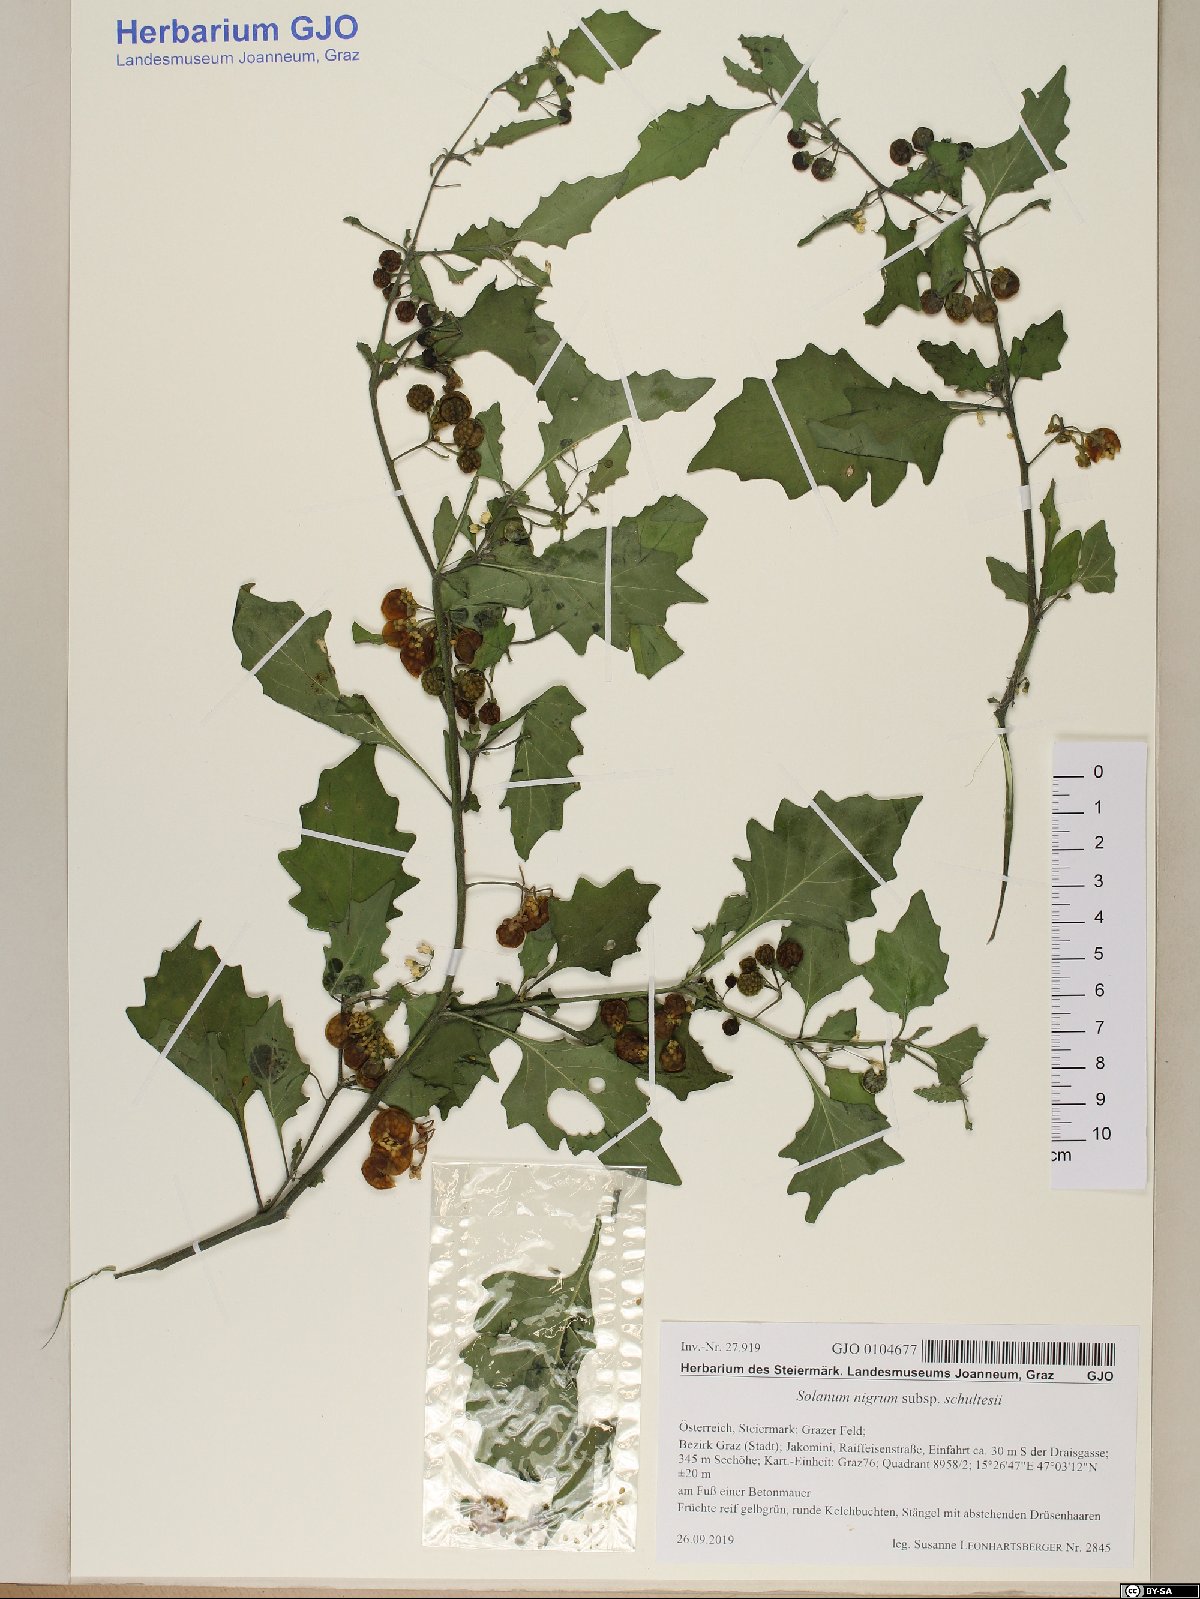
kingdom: Plantae
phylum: Tracheophyta
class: Magnoliopsida
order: Solanales
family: Solanaceae
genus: Solanum
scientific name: Solanum decipiens
